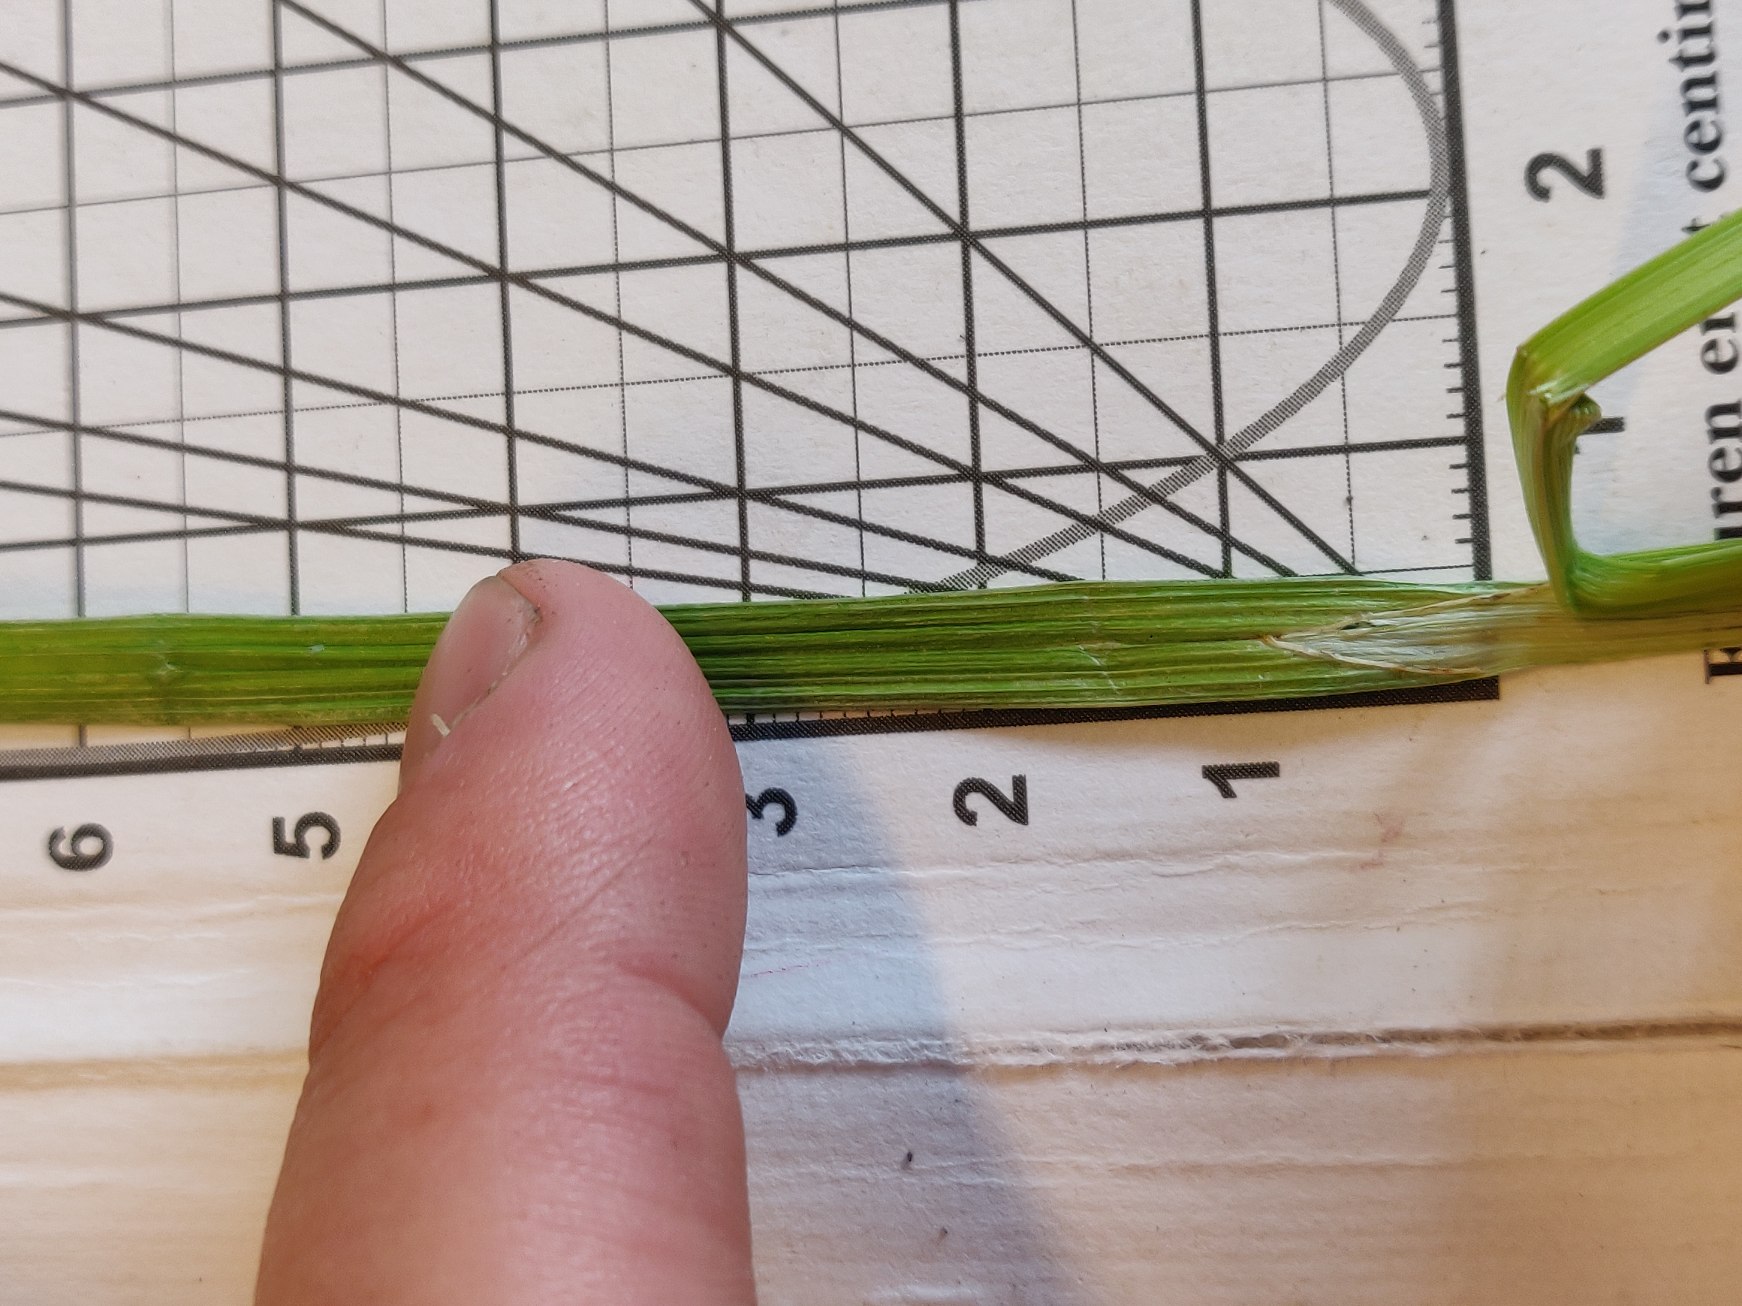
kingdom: Plantae
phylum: Tracheophyta
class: Liliopsida
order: Poales
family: Cyperaceae
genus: Carex
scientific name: Carex otrubae
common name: Sylt-star
